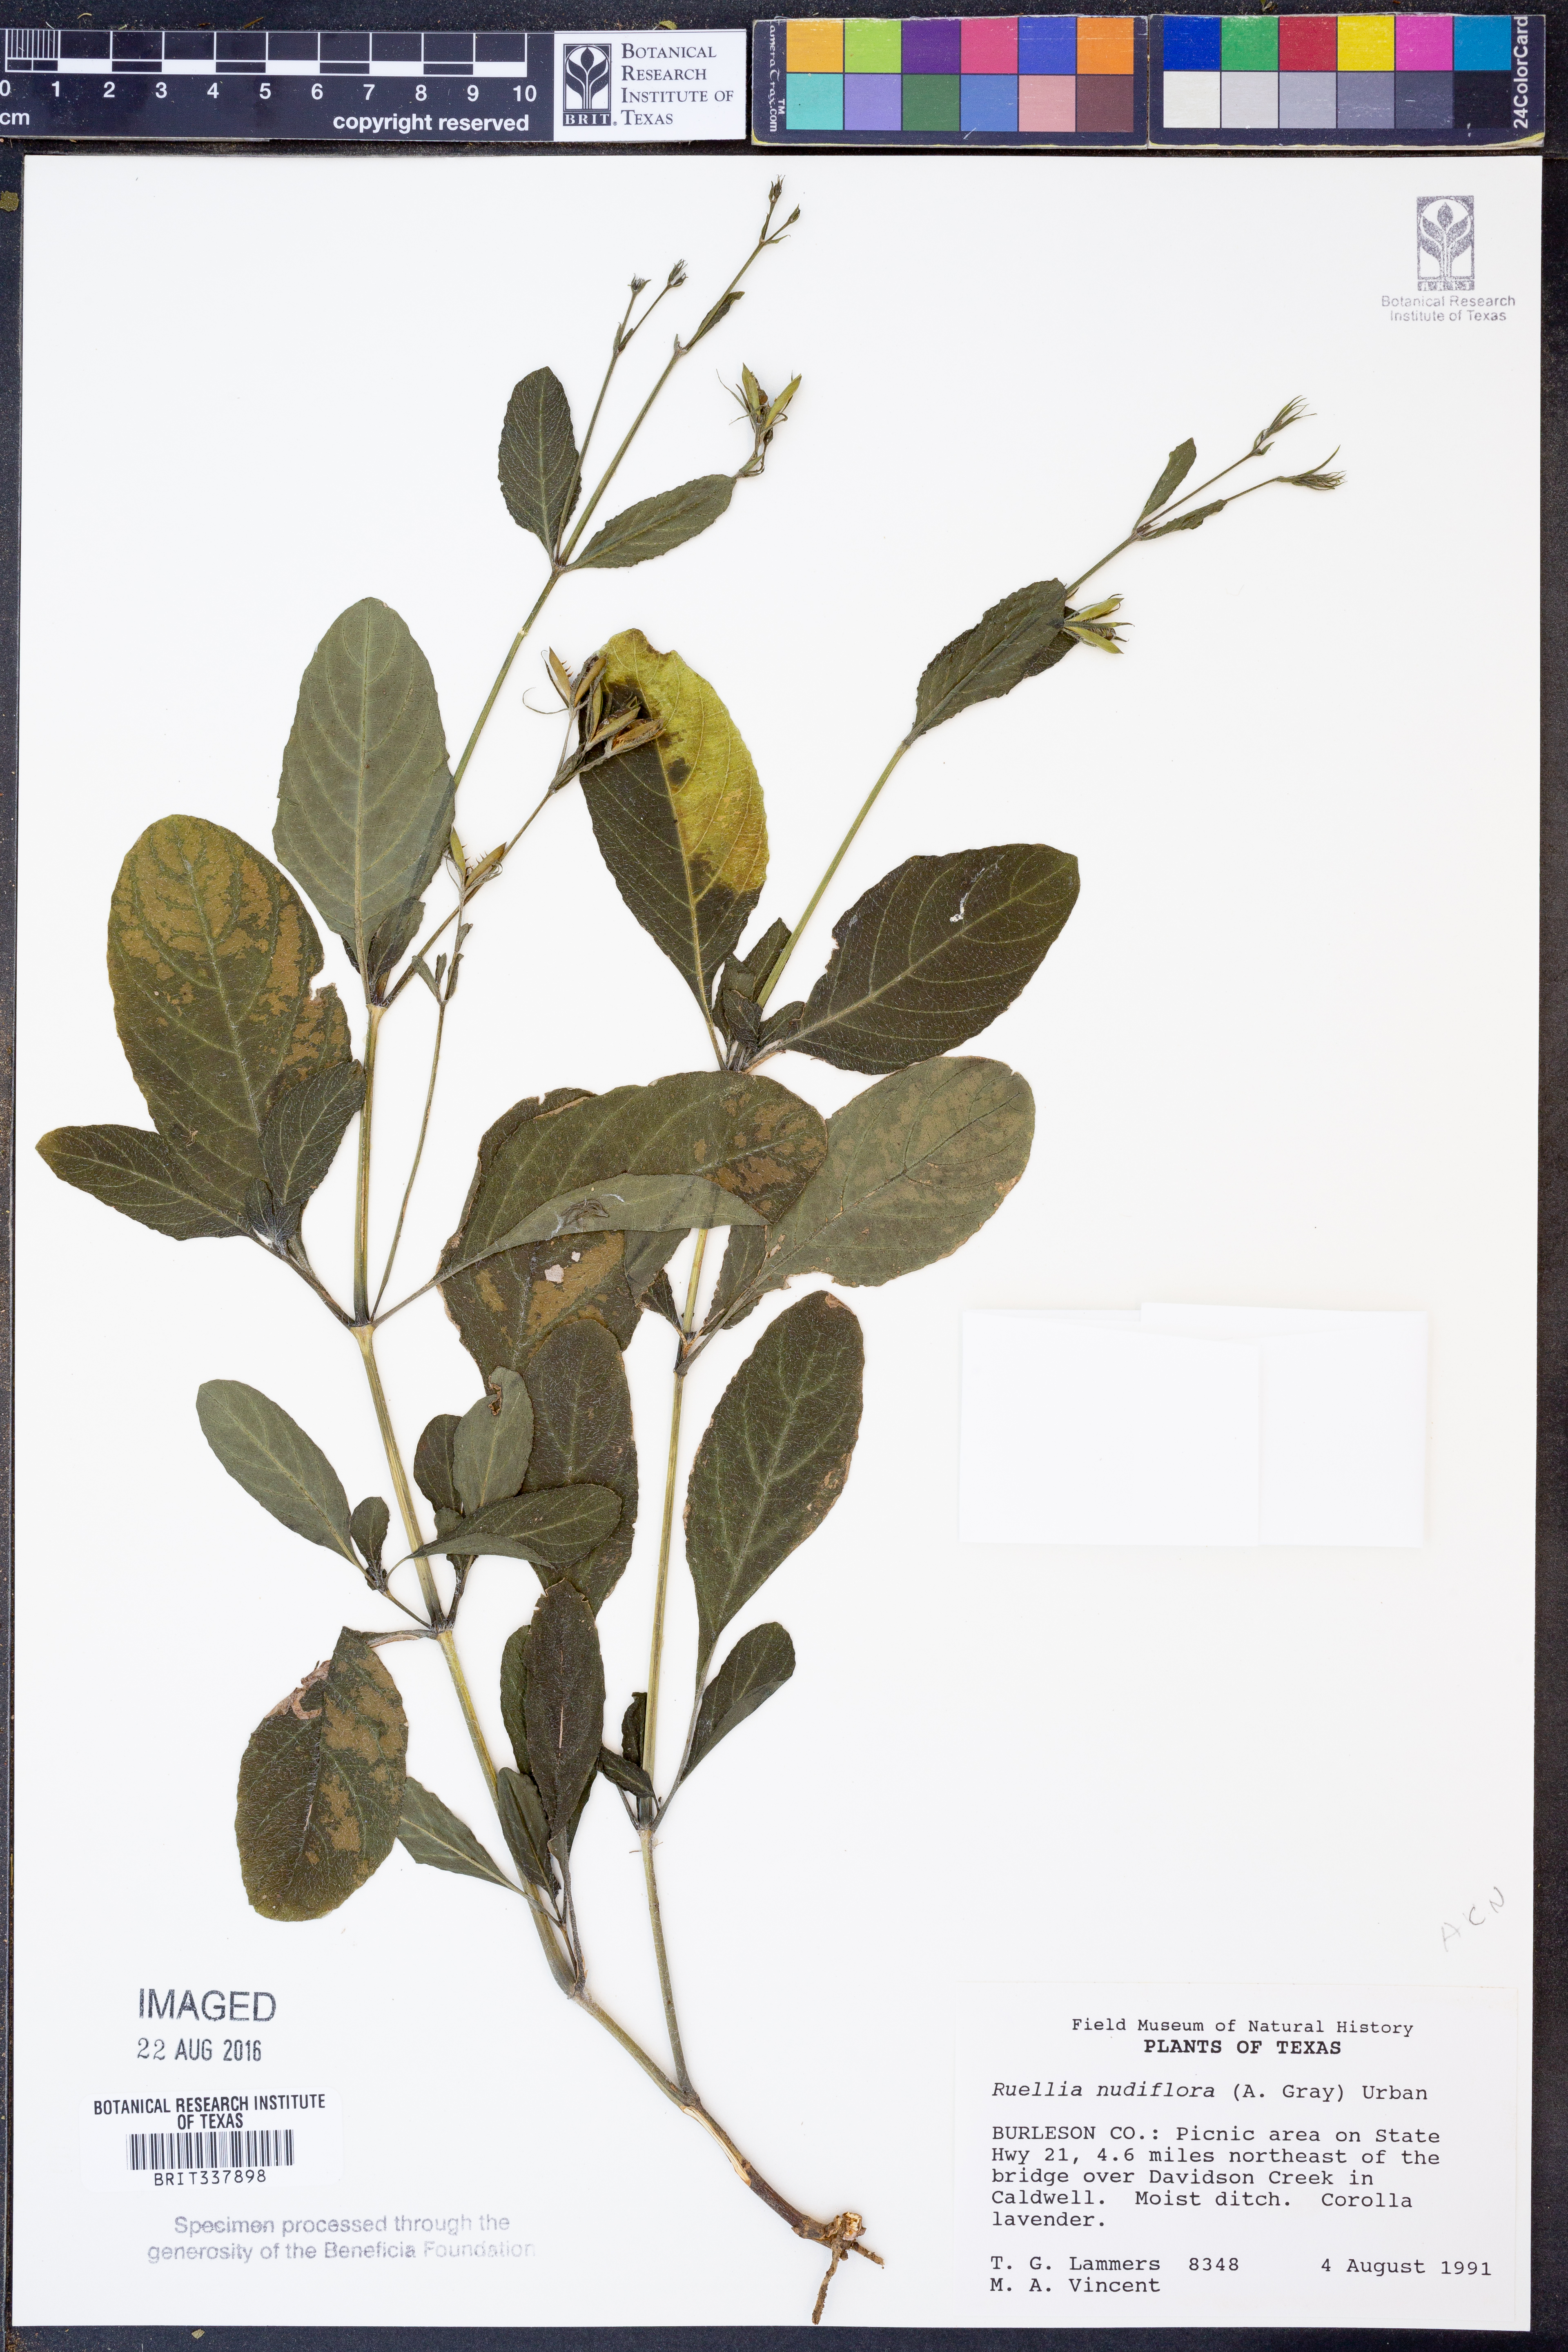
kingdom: Plantae
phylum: Tracheophyta
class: Magnoliopsida
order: Lamiales
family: Acanthaceae
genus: Ruellia
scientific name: Ruellia ciliatiflora
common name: Hairyflower wild petunia
